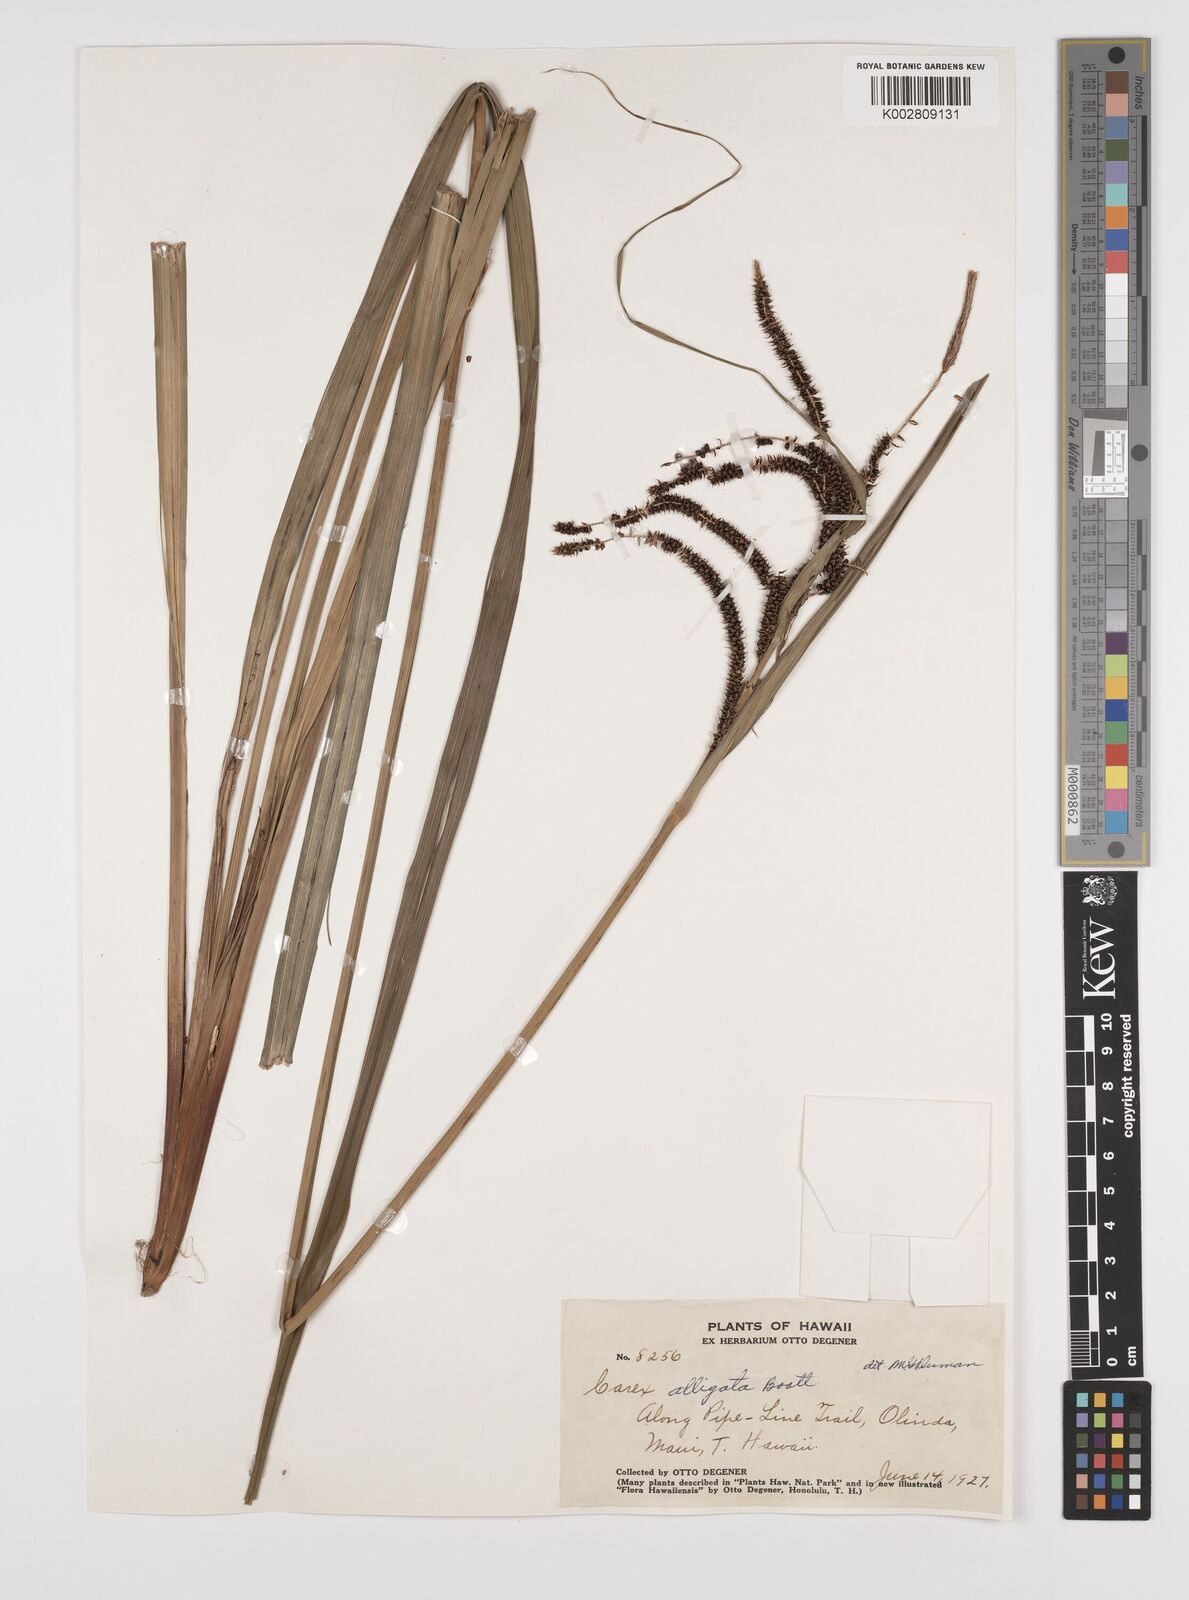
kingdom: Plantae
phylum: Tracheophyta
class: Liliopsida
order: Poales
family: Cyperaceae
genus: Carex
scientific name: Carex alligata
